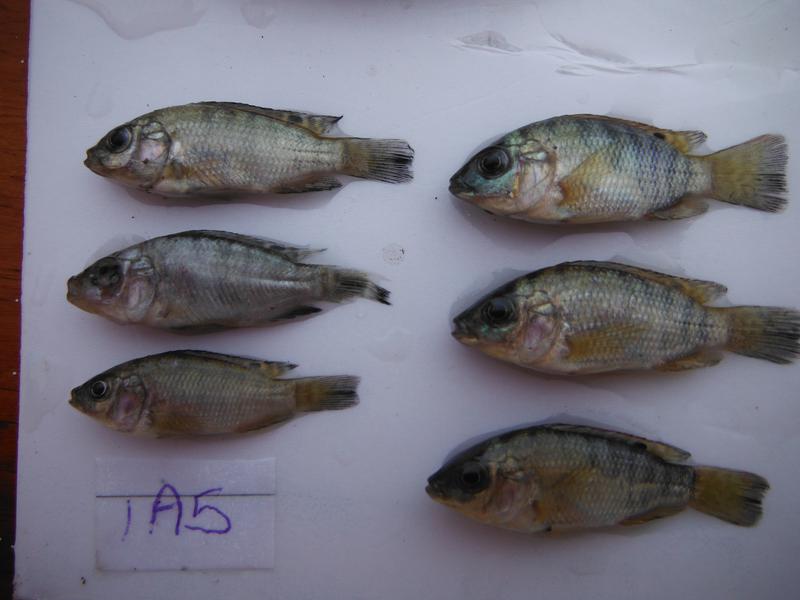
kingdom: Animalia
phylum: Chordata
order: Perciformes
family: Cichlidae
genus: Oreochromis
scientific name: Oreochromis urolepis
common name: Wami tilapia
